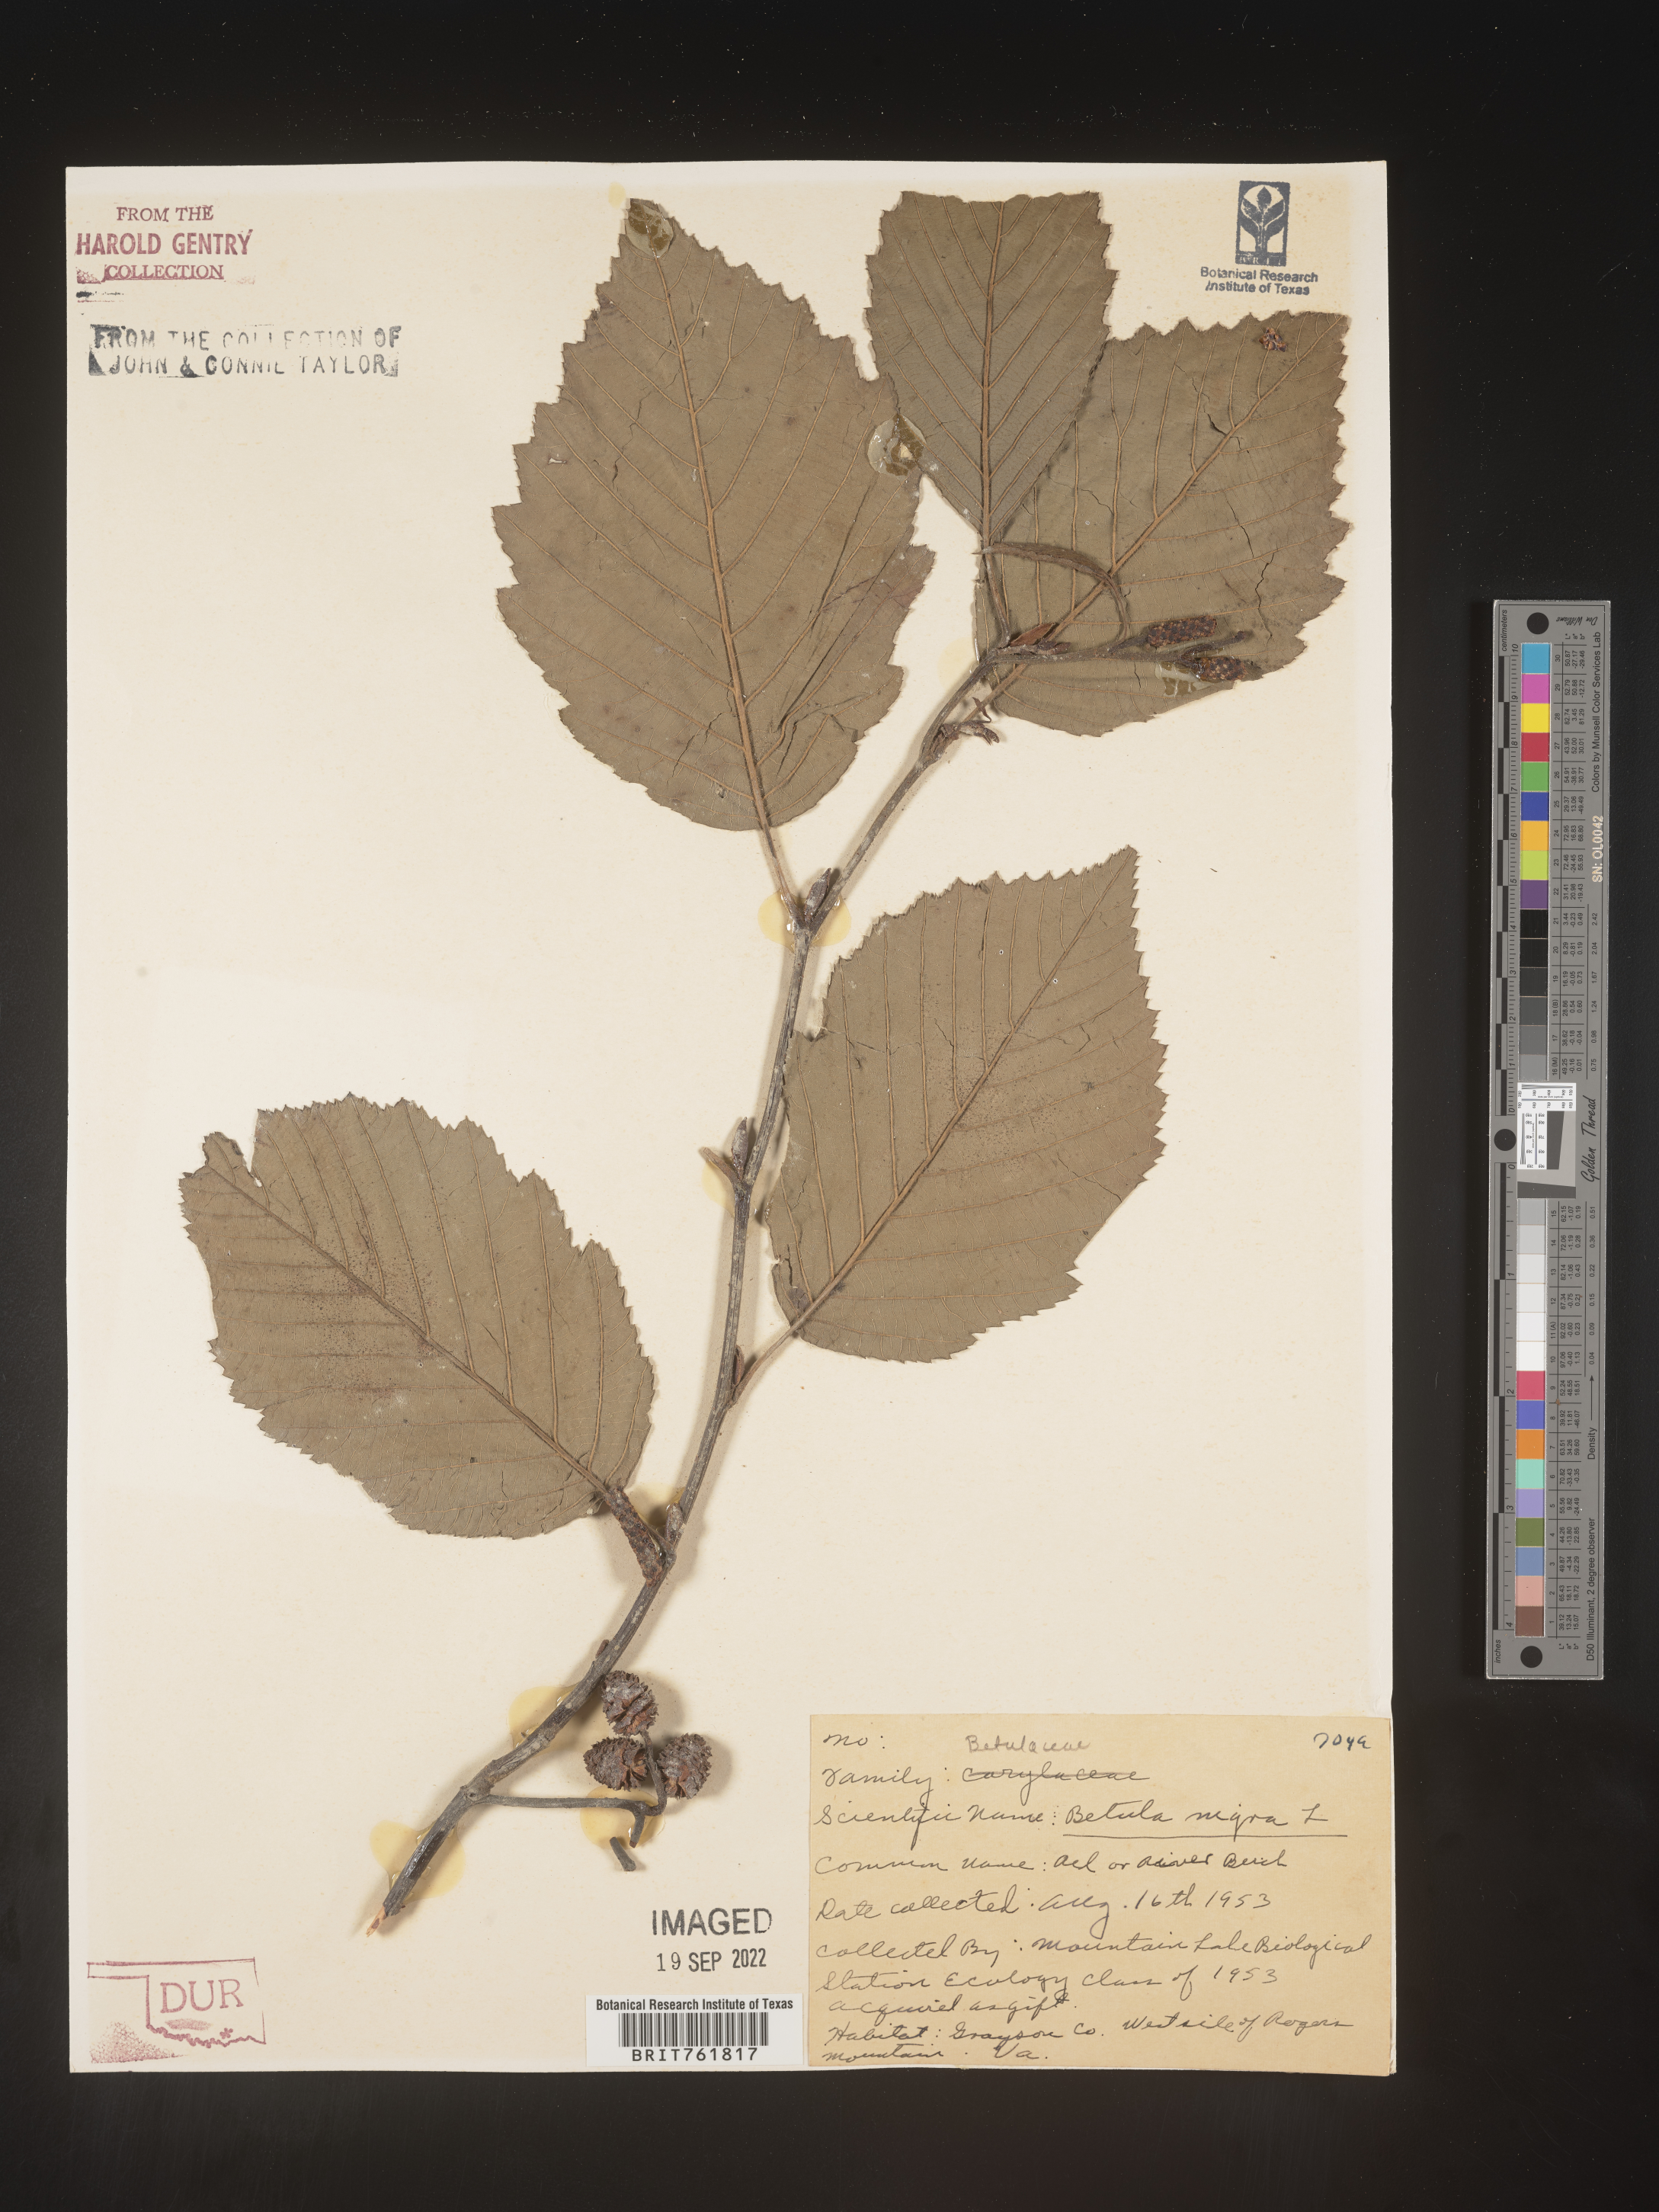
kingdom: Plantae
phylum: Tracheophyta
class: Magnoliopsida
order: Fagales
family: Betulaceae
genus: Betula
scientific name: Betula nigra
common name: Black birch
